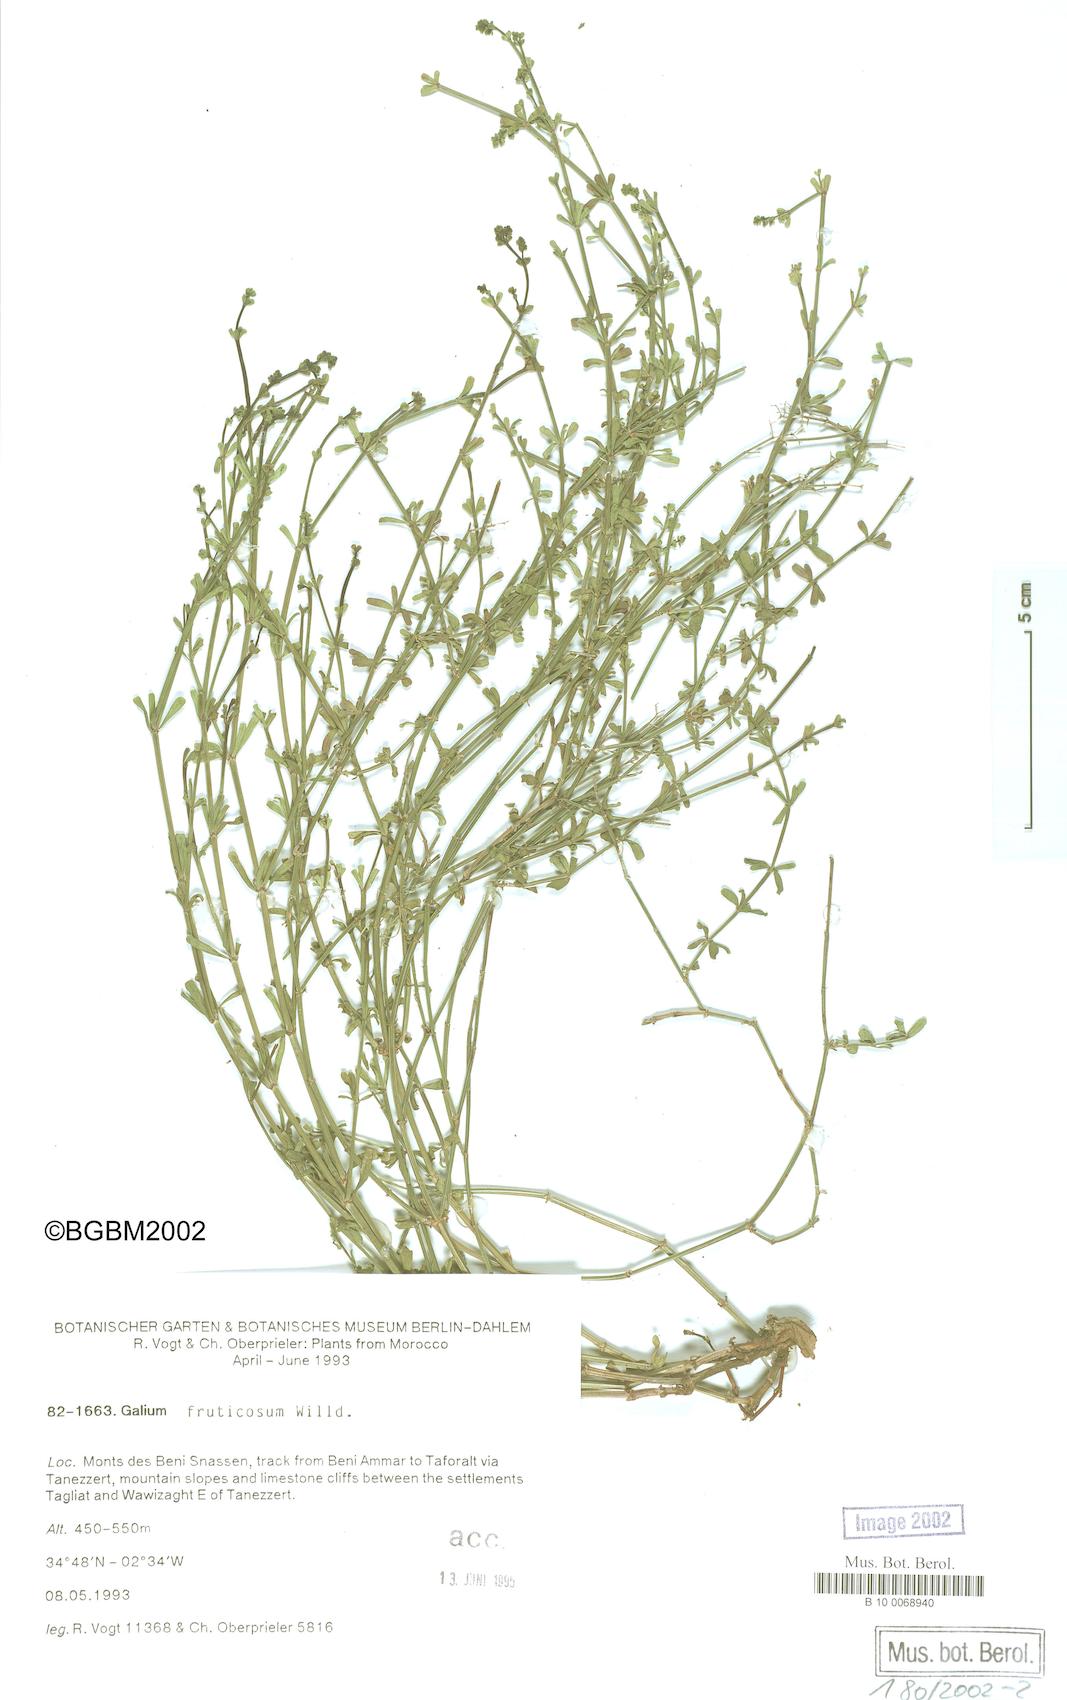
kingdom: Plantae
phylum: Tracheophyta
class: Magnoliopsida
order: Gentianales
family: Rubiaceae
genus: Galium
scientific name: Galium fruticosum
